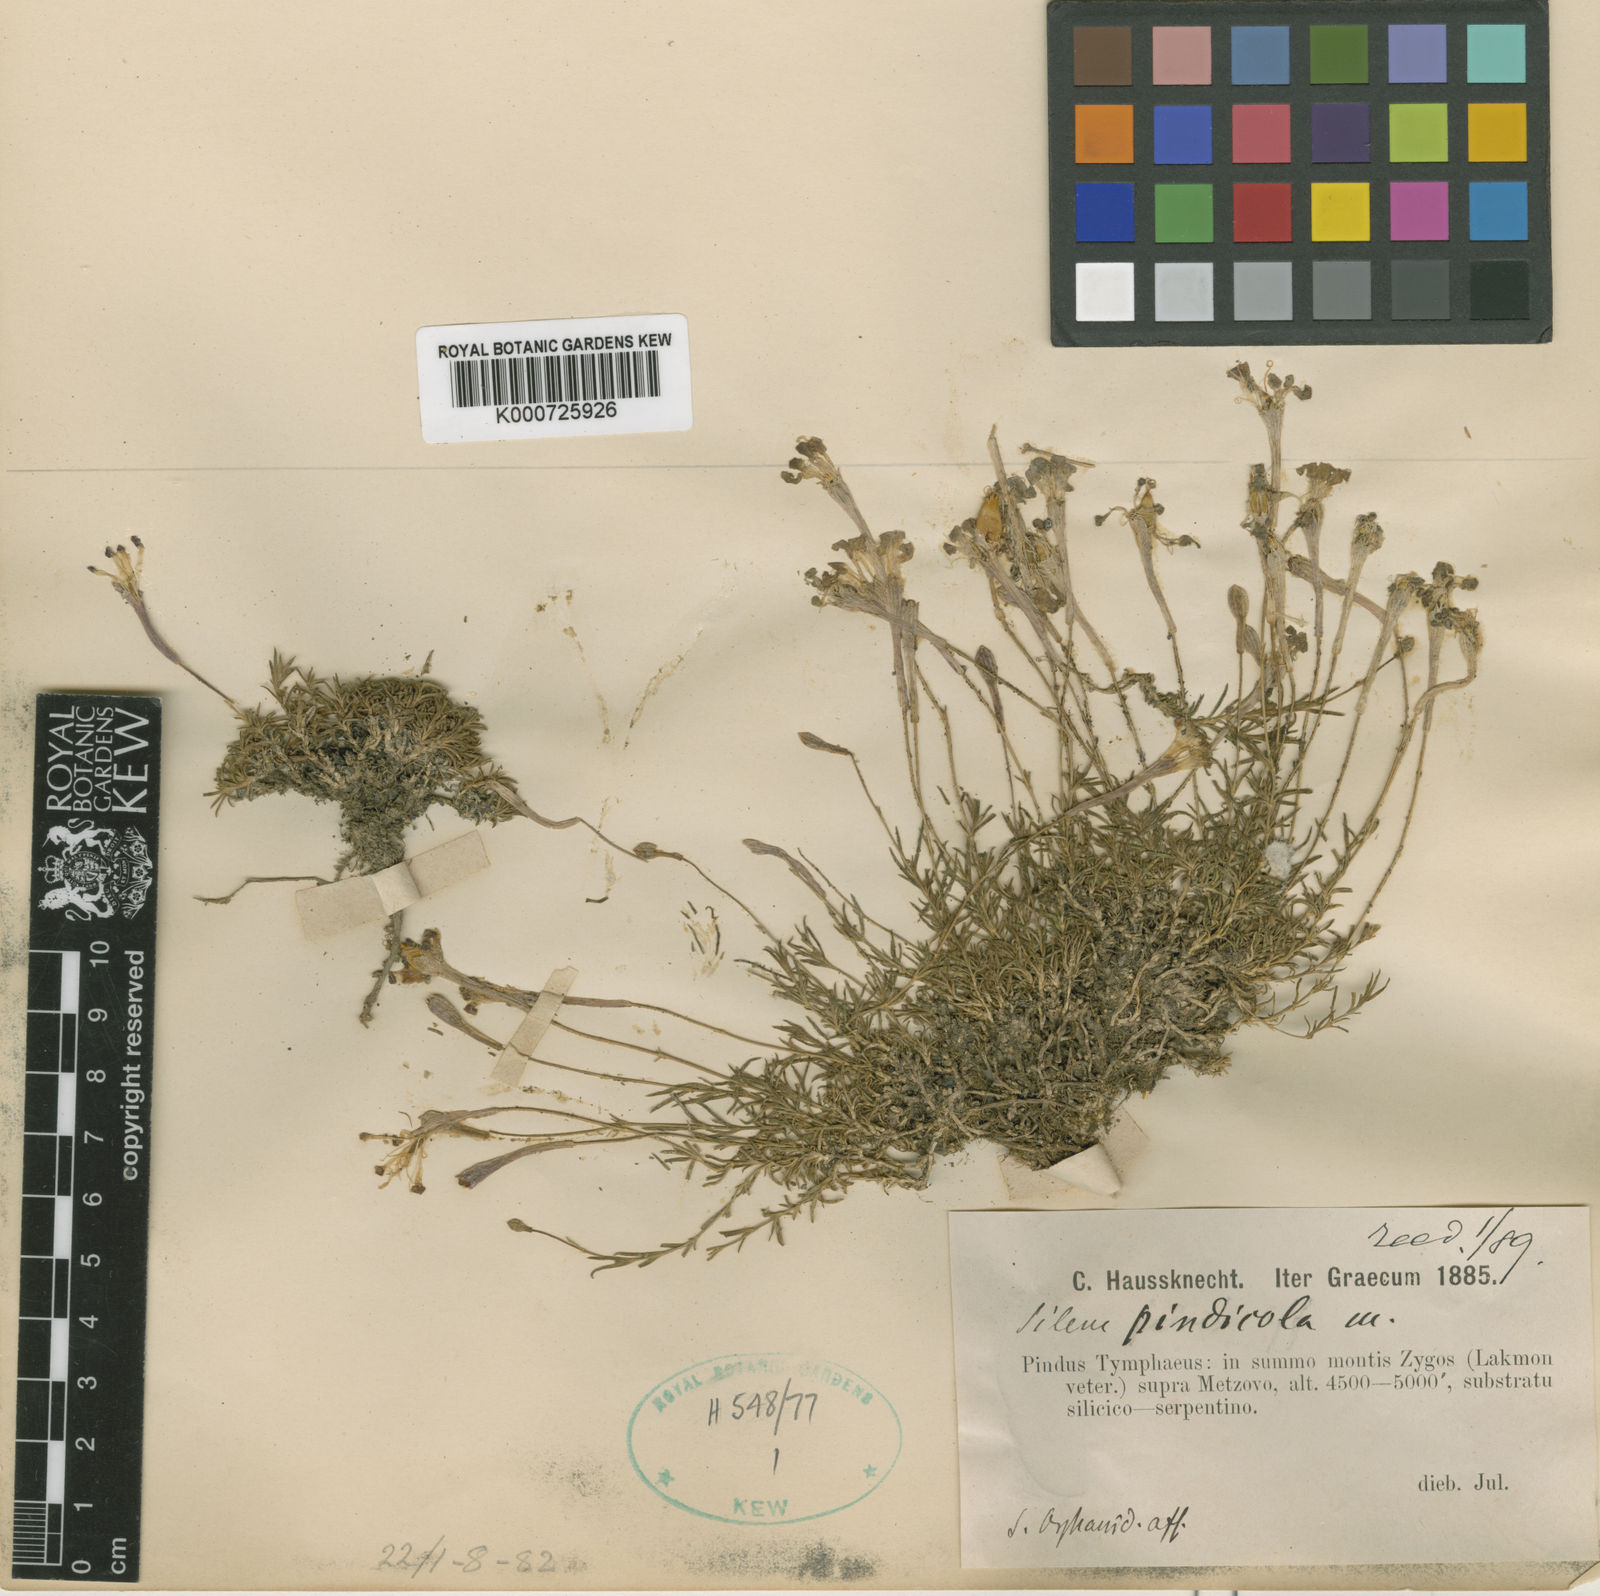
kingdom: Plantae
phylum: Tracheophyta
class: Magnoliopsida
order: Caryophyllales
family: Caryophyllaceae
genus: Silene
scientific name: Silene parnassica
